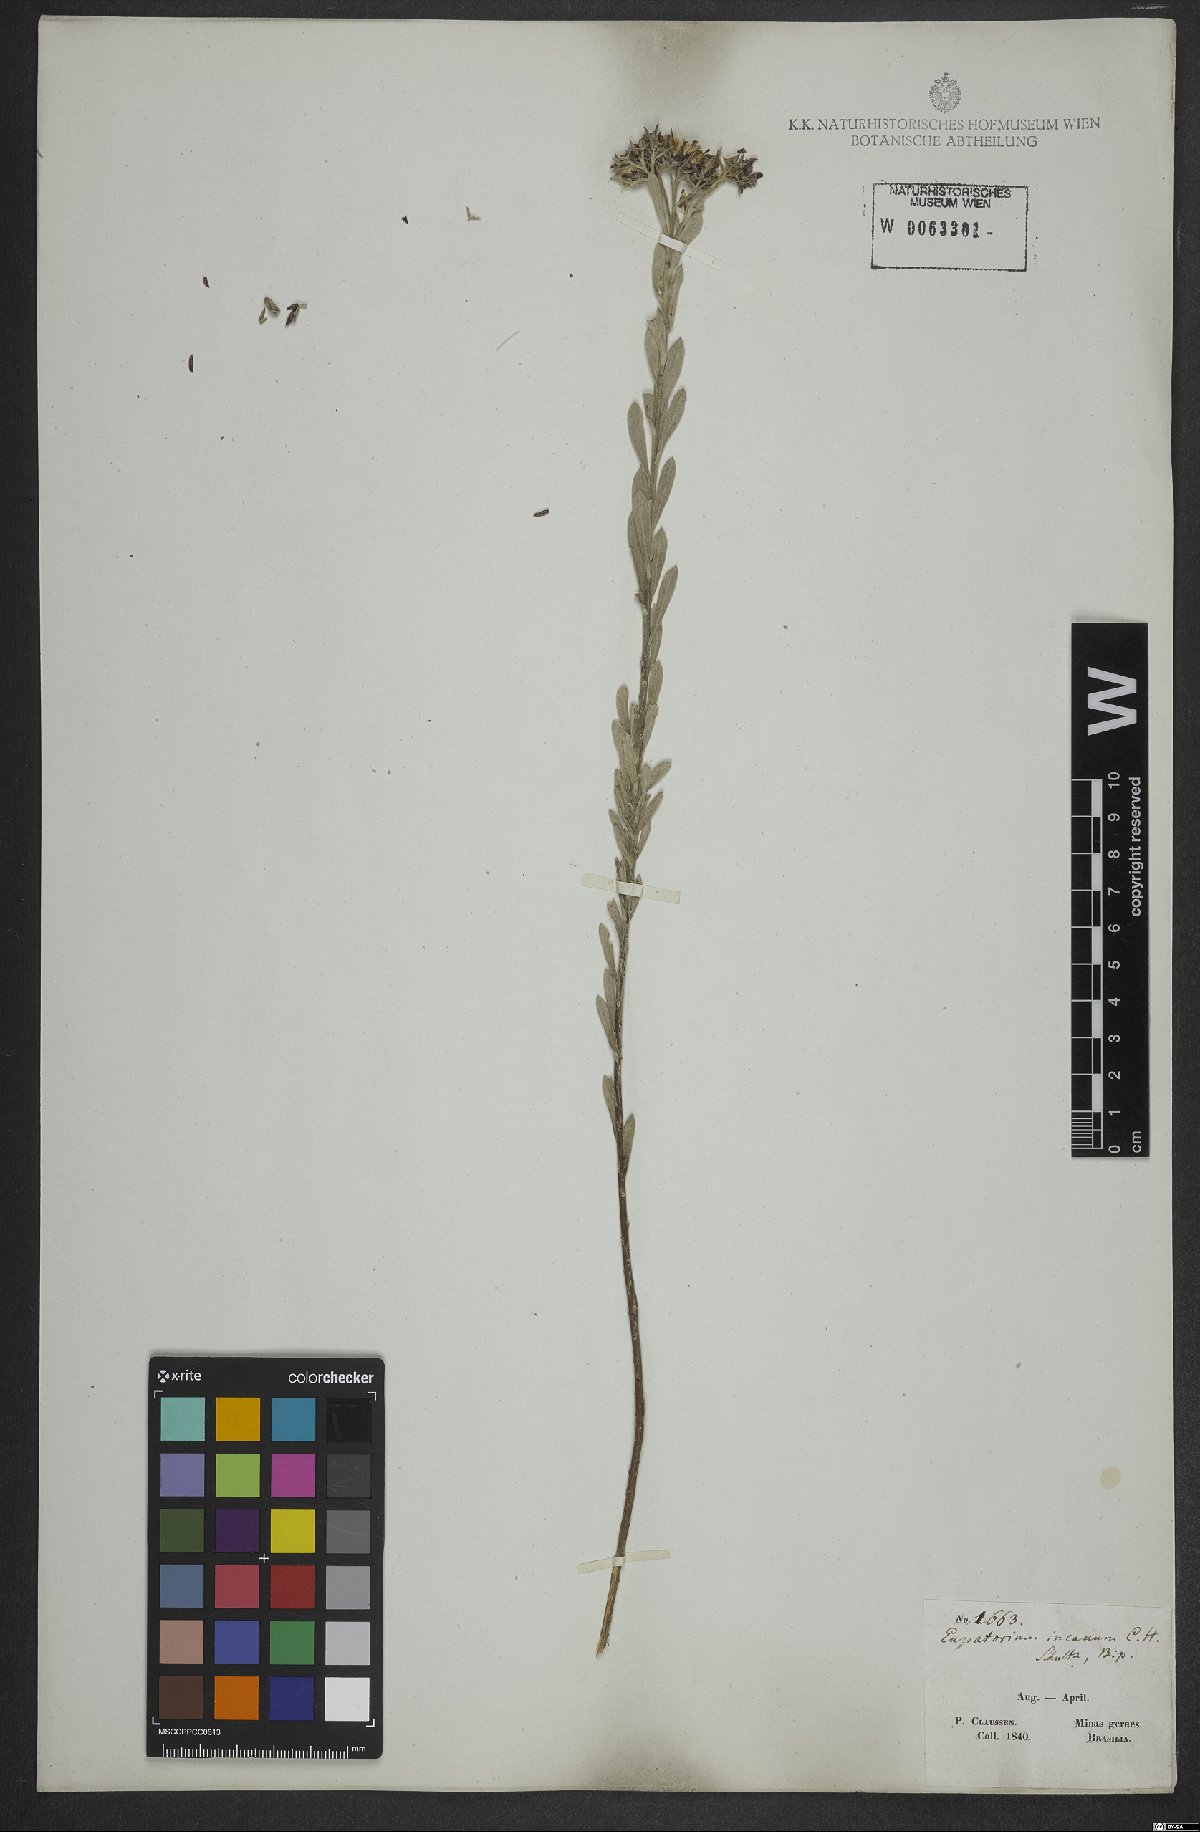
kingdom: Plantae
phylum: Tracheophyta
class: Magnoliopsida
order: Asterales
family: Asteraceae
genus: Disynaphia
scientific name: Disynaphia halimifolia
